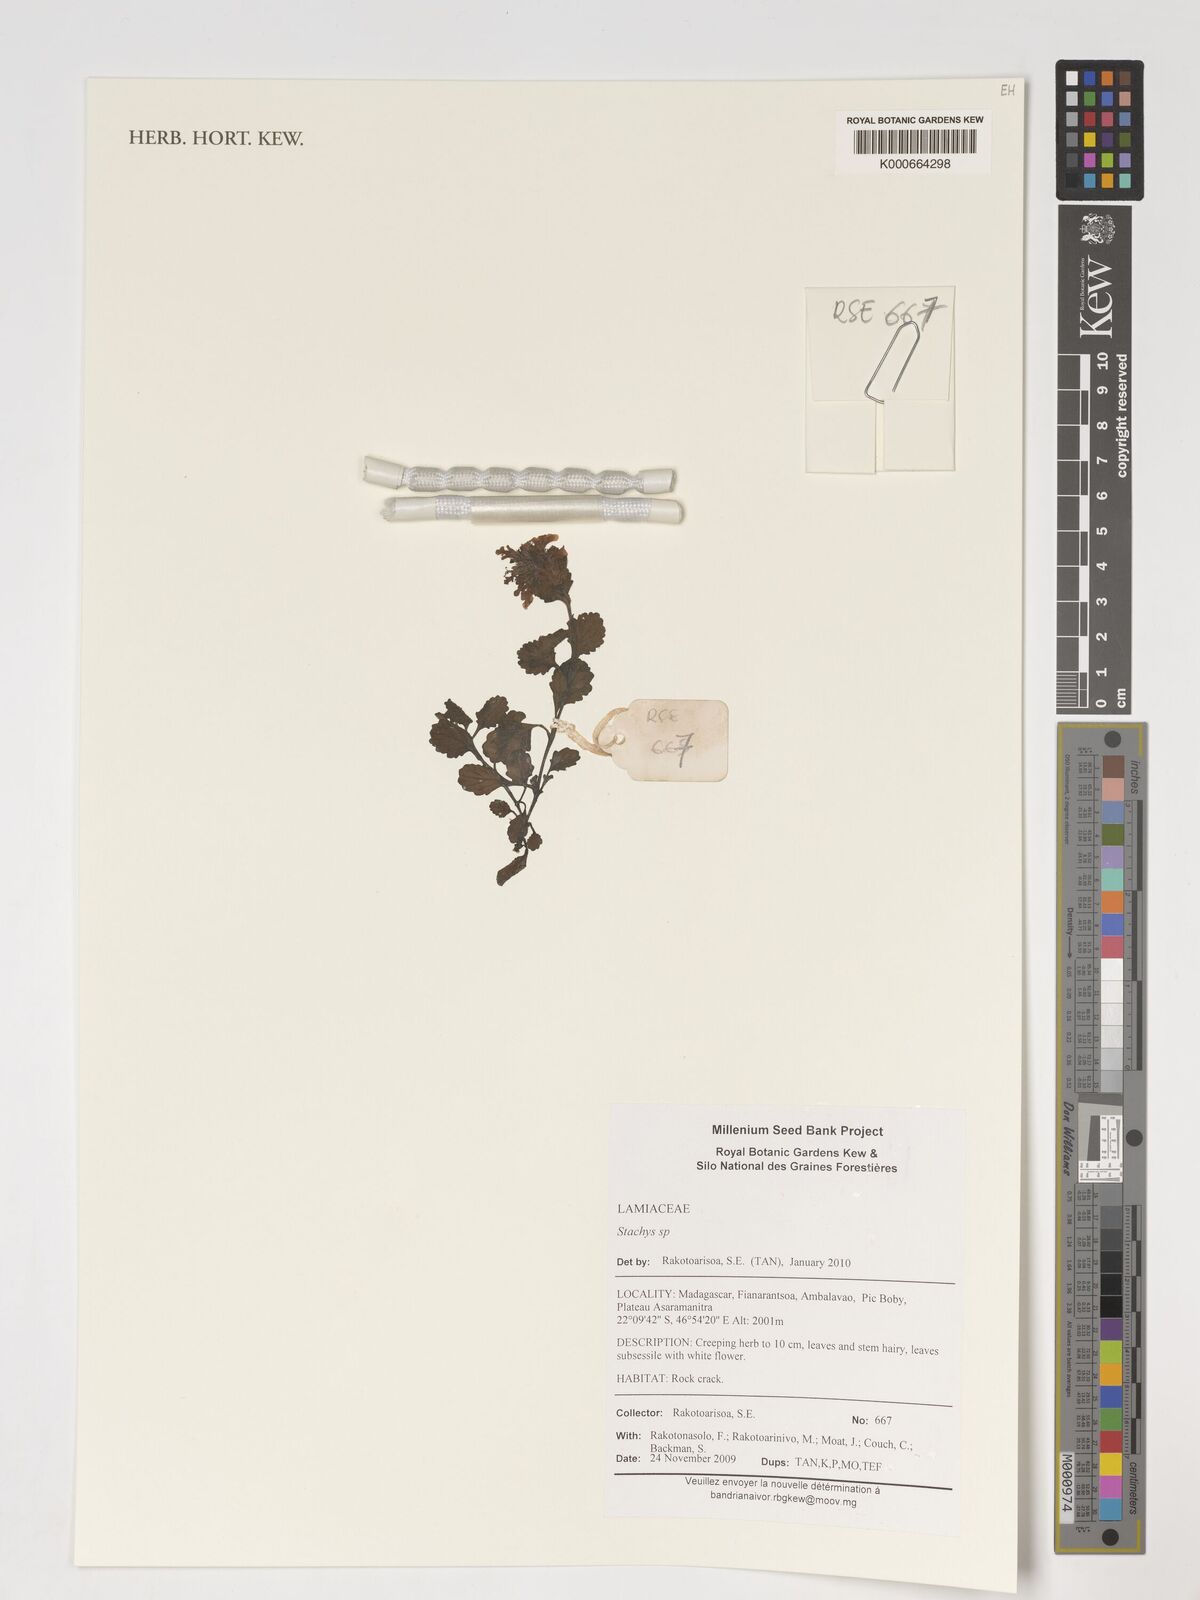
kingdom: Plantae
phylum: Tracheophyta
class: Magnoliopsida
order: Lamiales
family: Lamiaceae
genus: Stachys
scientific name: Stachys
